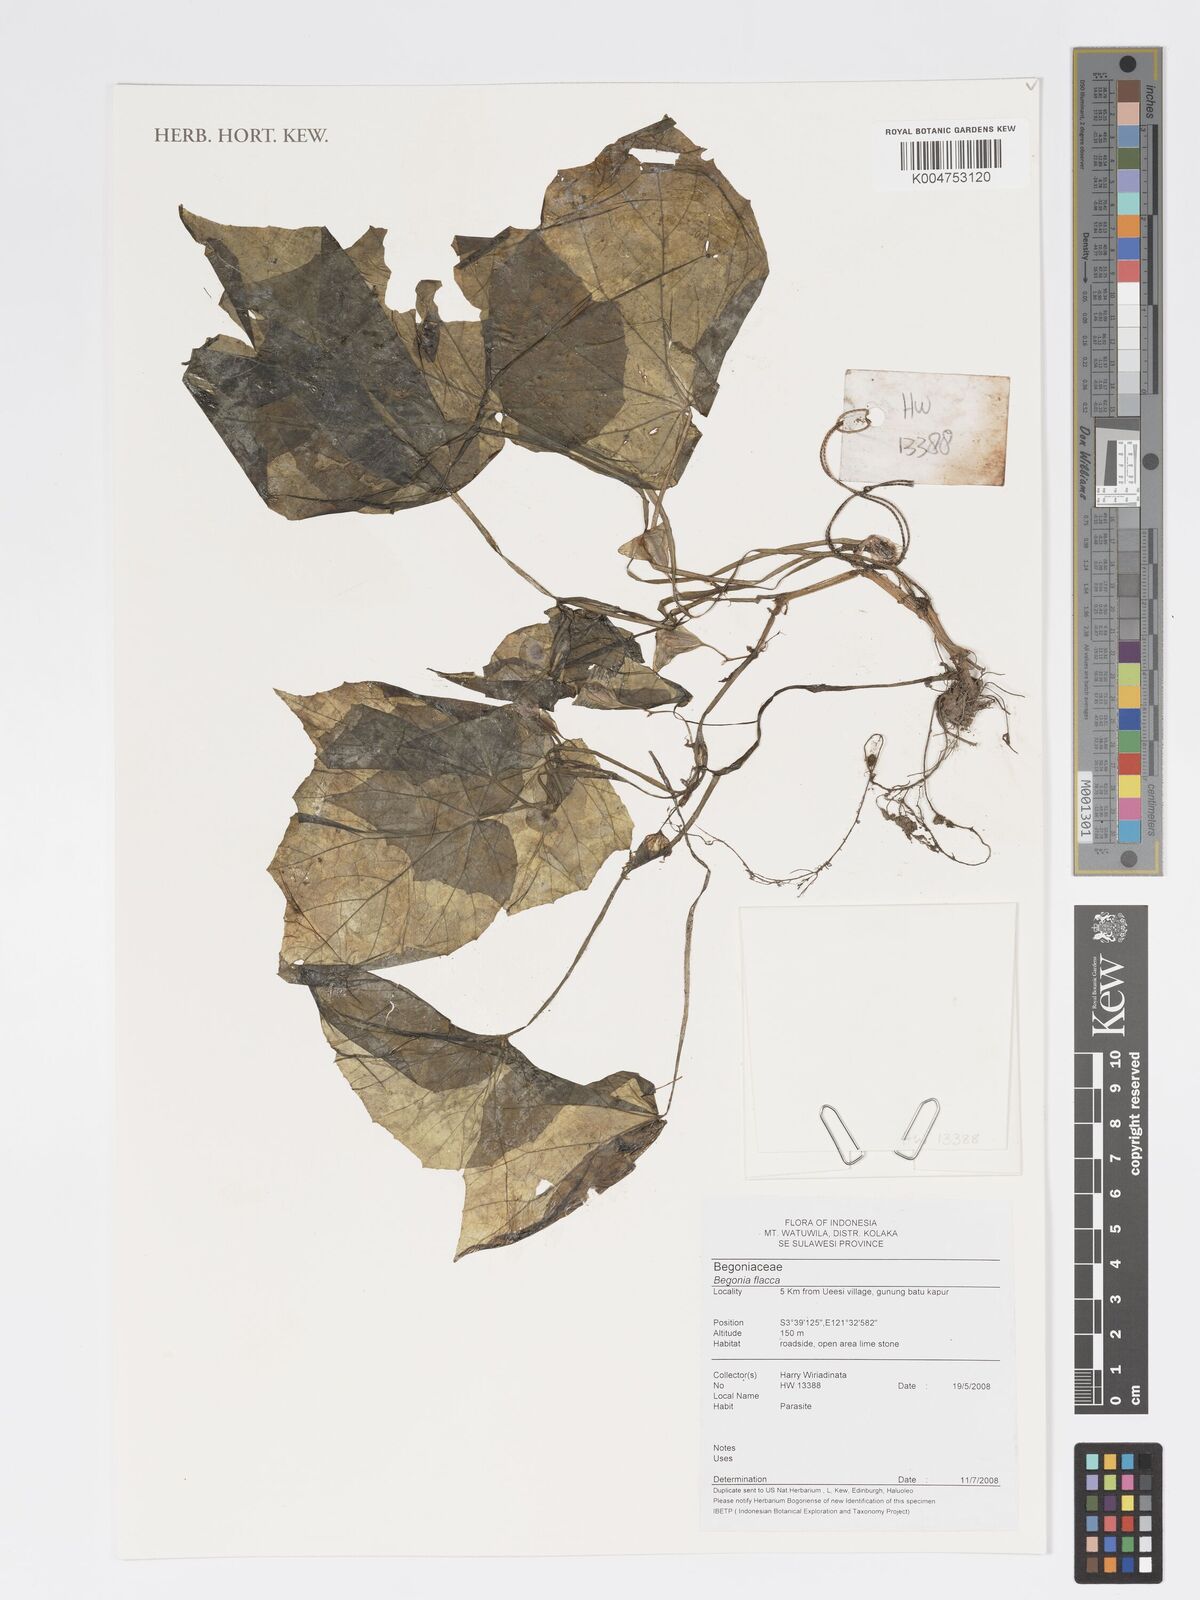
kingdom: Plantae
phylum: Tracheophyta
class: Magnoliopsida
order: Cucurbitales
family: Begoniaceae
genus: Begonia
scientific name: Begonia flacca
